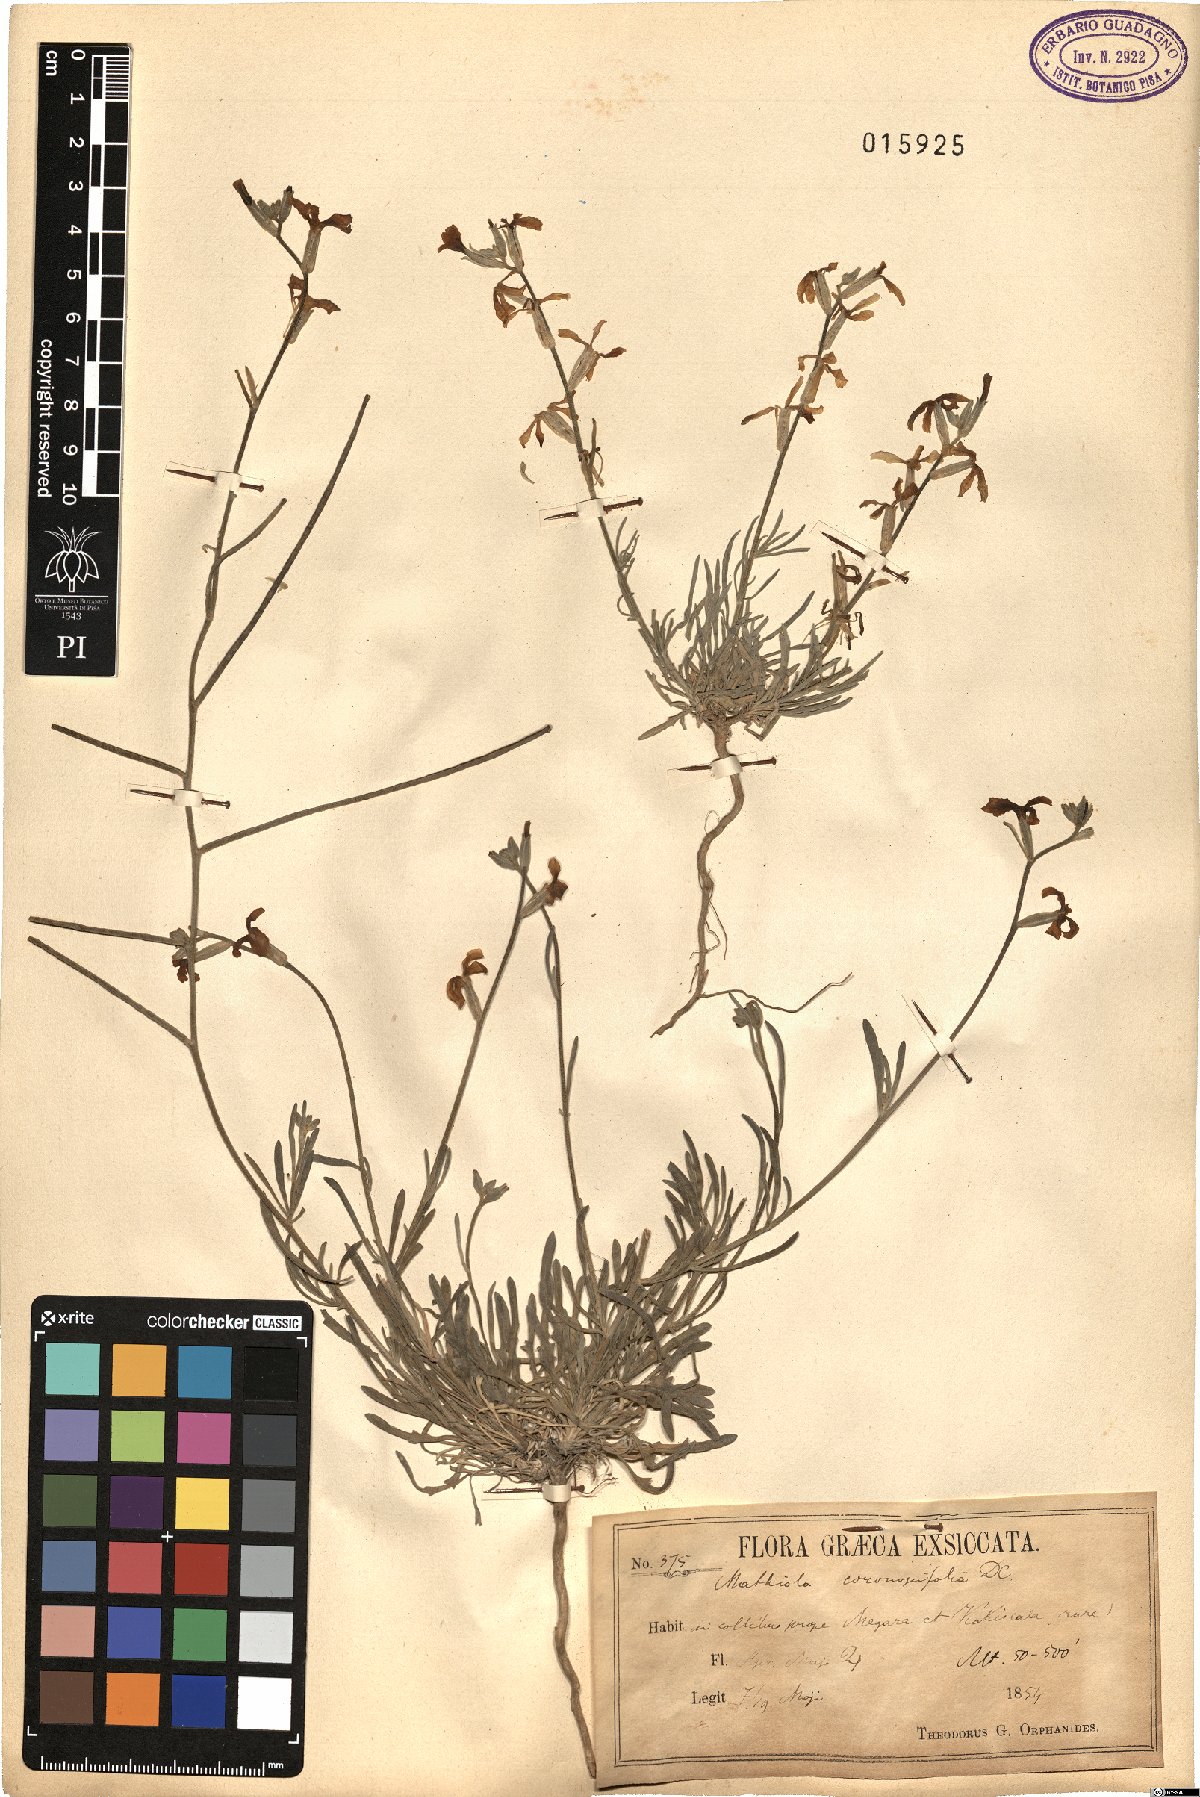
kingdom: Plantae
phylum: Tracheophyta
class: Magnoliopsida
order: Brassicales
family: Brassicaceae
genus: Matthiola
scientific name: Matthiola fruticulosa
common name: Sad stock
